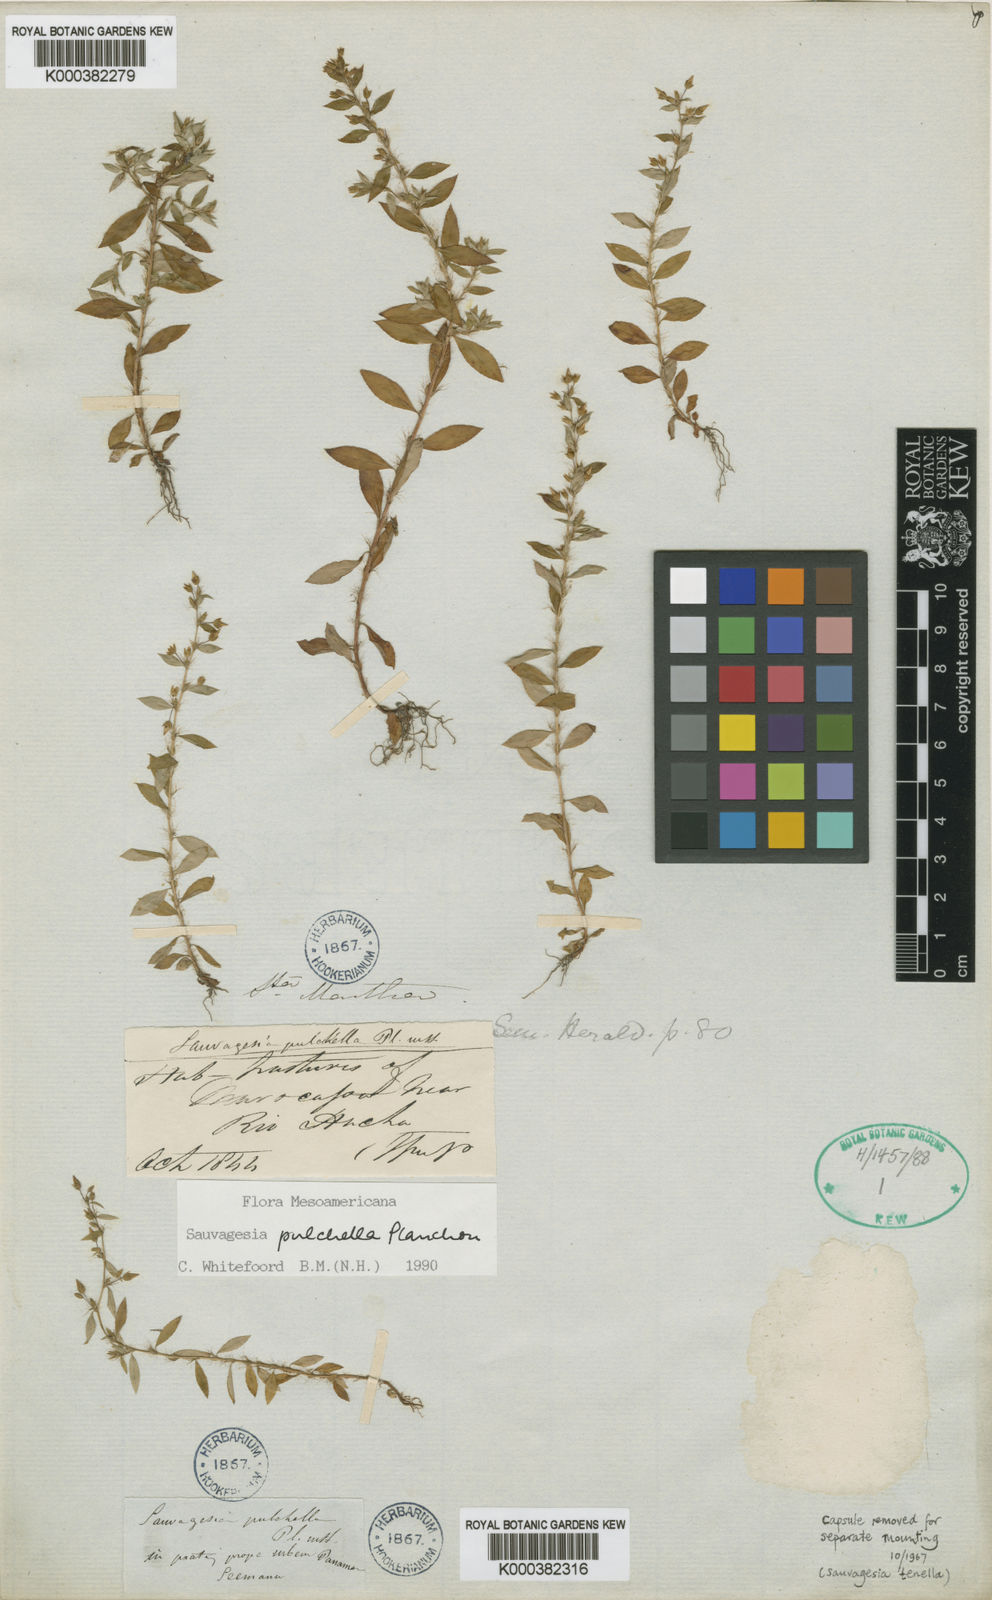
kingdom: Plantae
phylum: Tracheophyta
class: Magnoliopsida
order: Malpighiales
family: Ochnaceae
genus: Sauvagesia
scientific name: Sauvagesia pulchella
